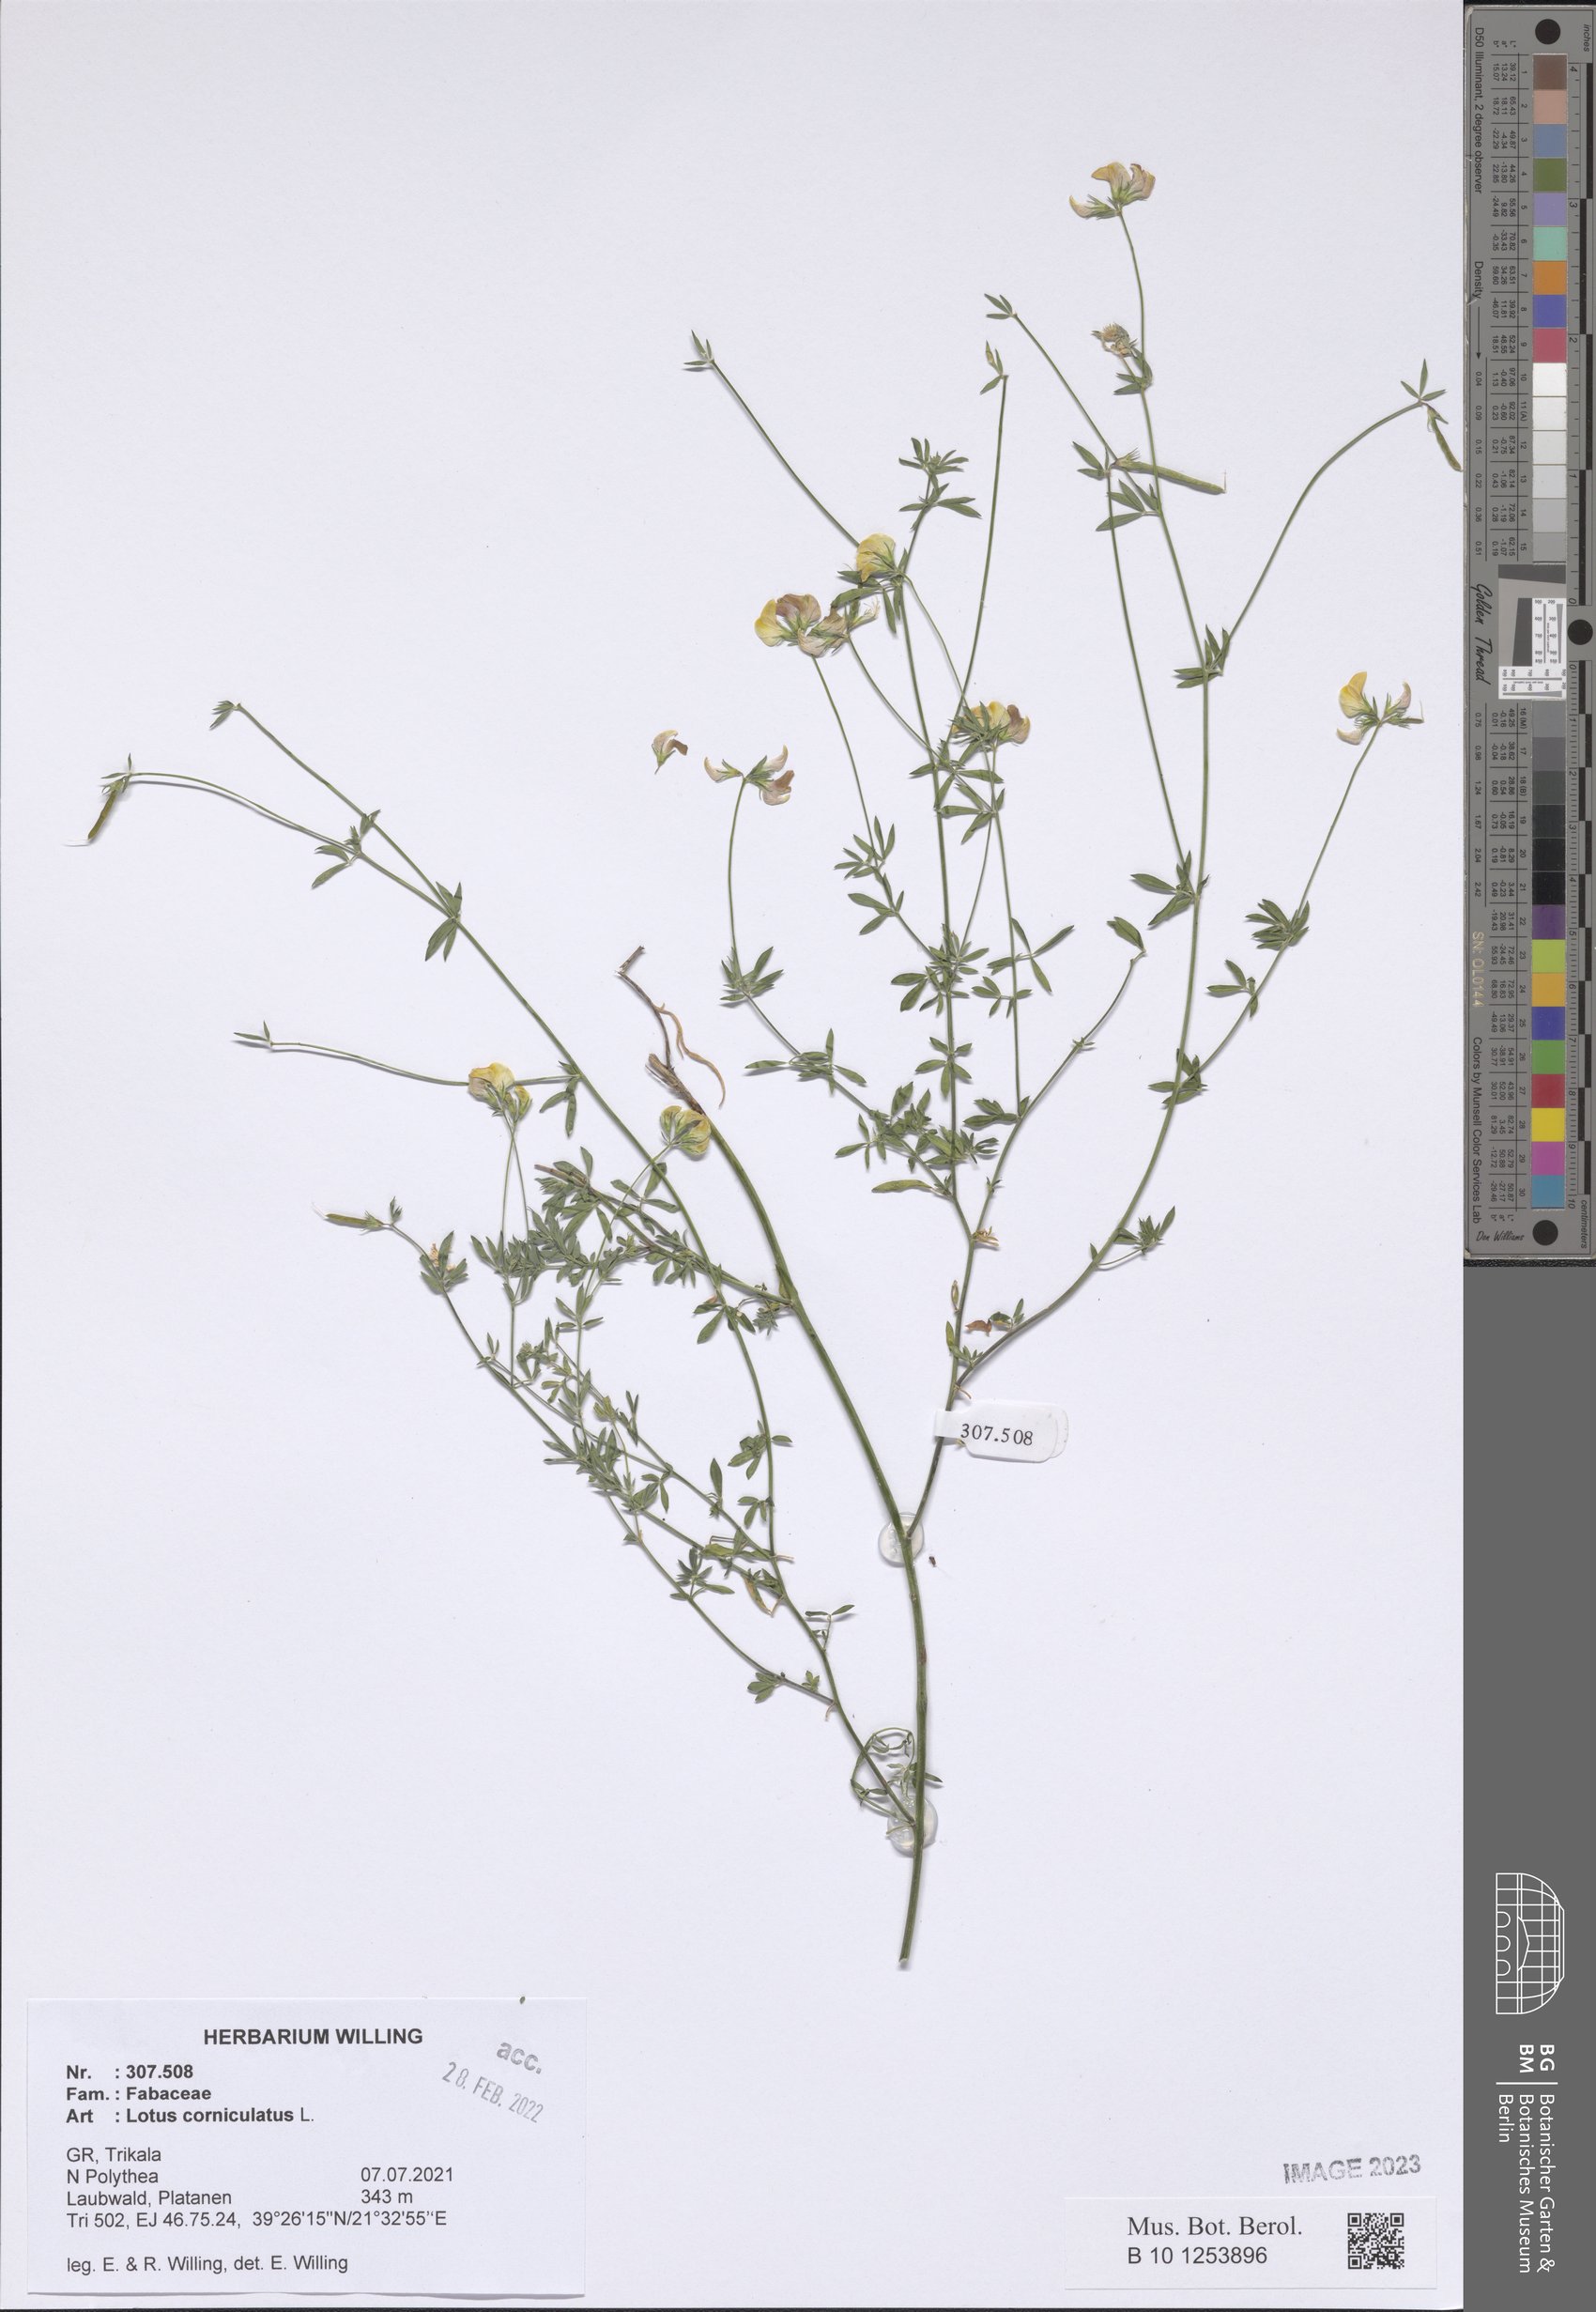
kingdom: Plantae
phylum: Tracheophyta
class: Magnoliopsida
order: Fabales
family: Fabaceae
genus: Lotus
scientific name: Lotus corniculatus
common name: Common bird's-foot-trefoil
